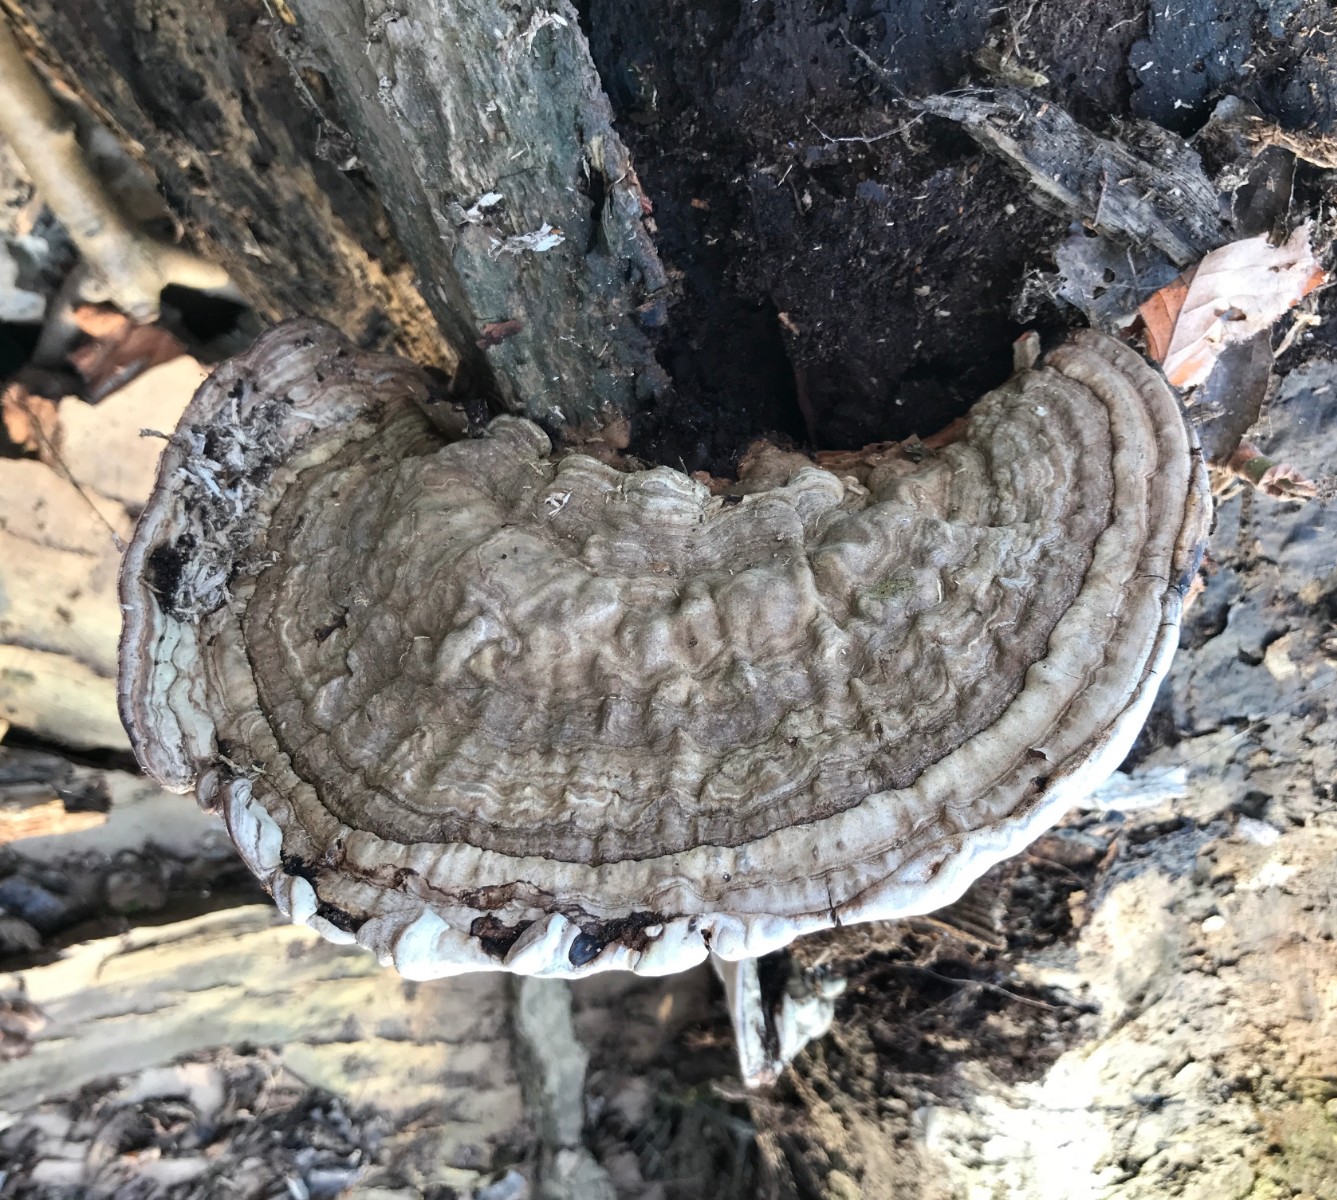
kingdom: Fungi
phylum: Basidiomycota
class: Agaricomycetes
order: Polyporales
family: Polyporaceae
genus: Ganoderma
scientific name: Ganoderma applanatum
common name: flad lakporesvamp
